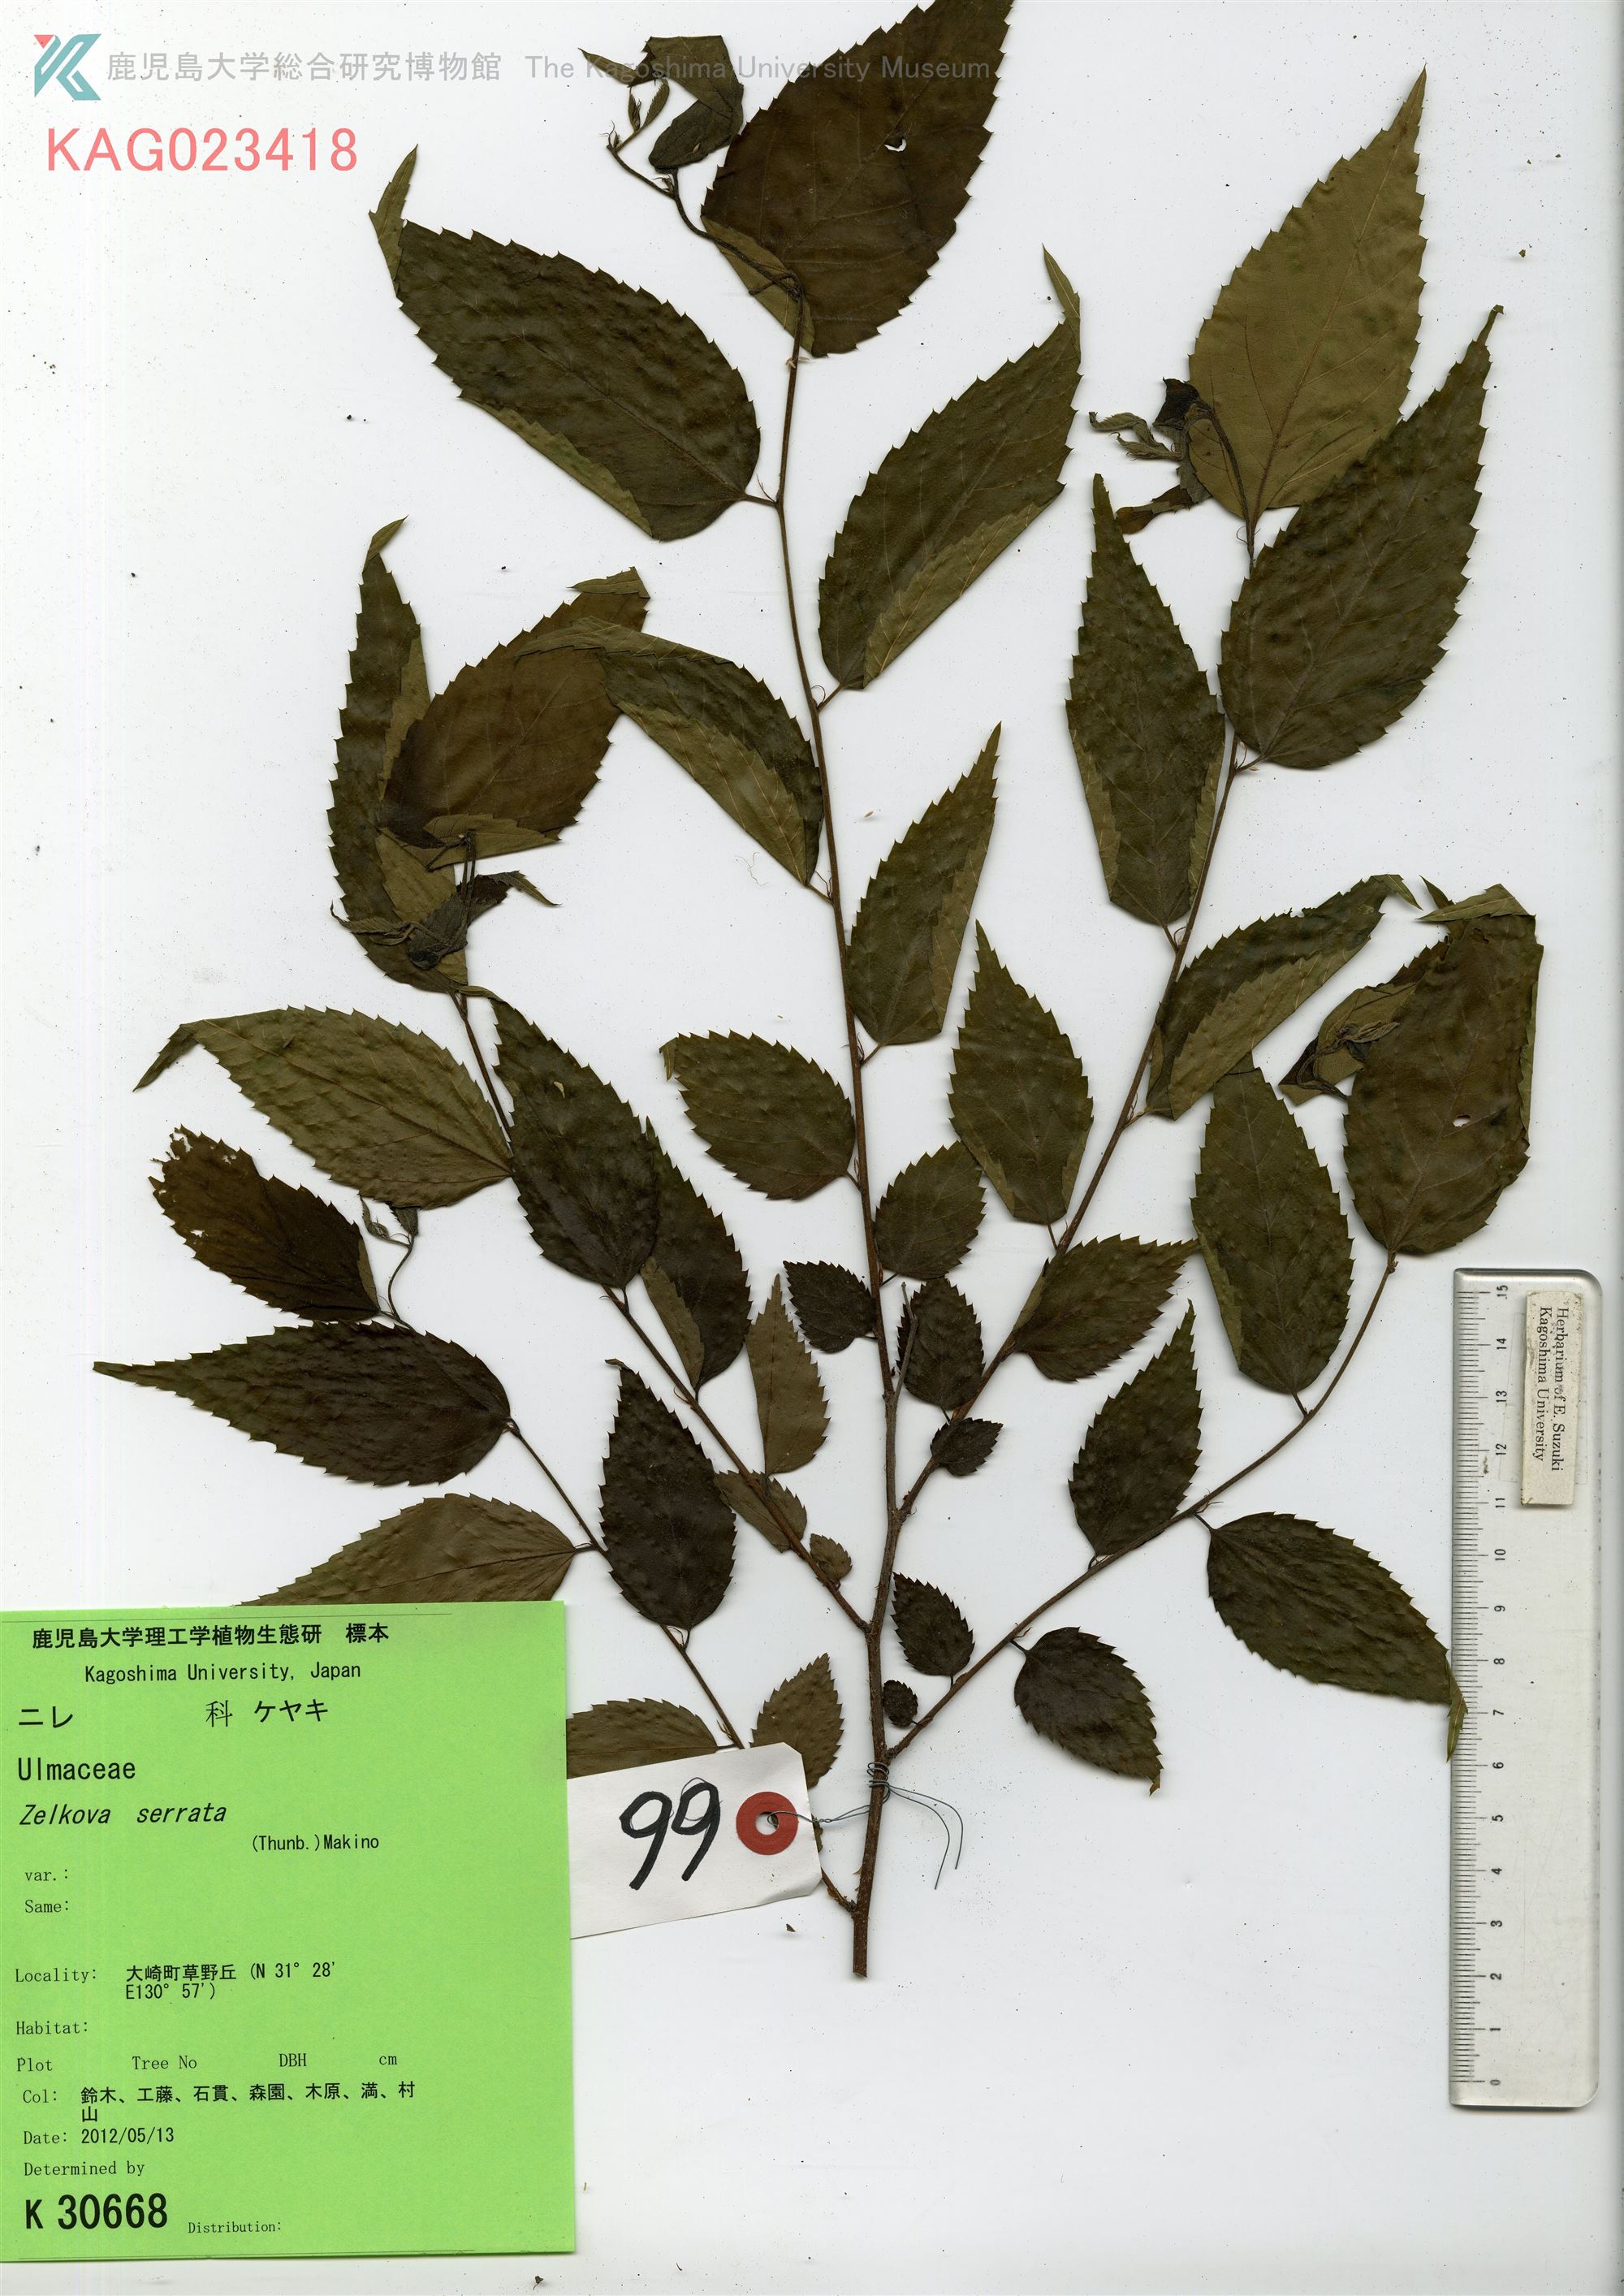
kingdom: Plantae
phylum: Tracheophyta
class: Magnoliopsida
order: Rosales
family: Ulmaceae
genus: Zelkova
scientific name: Zelkova serrata
